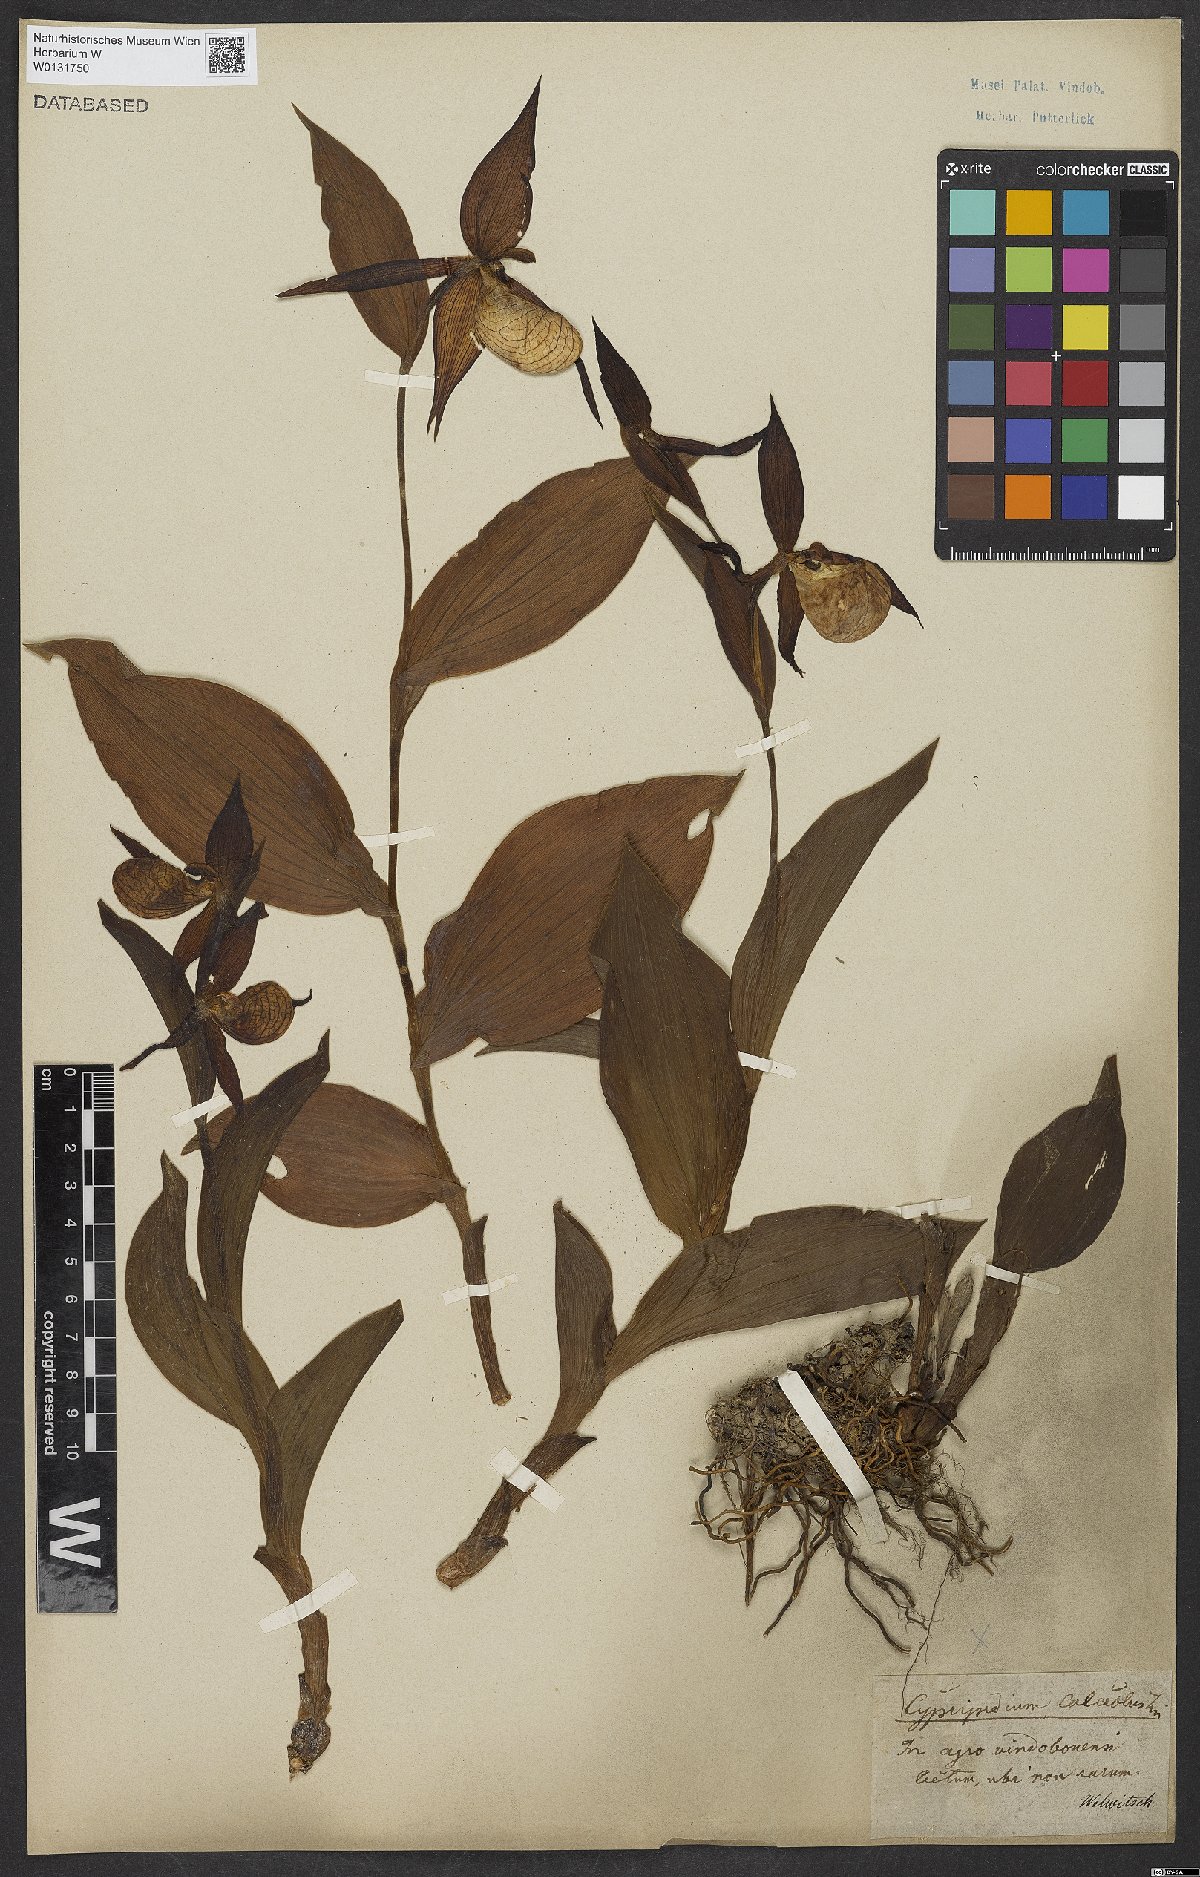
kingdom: Plantae
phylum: Tracheophyta
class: Liliopsida
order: Asparagales
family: Orchidaceae
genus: Cypripedium
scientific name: Cypripedium calceolus
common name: Lady's-slipper
